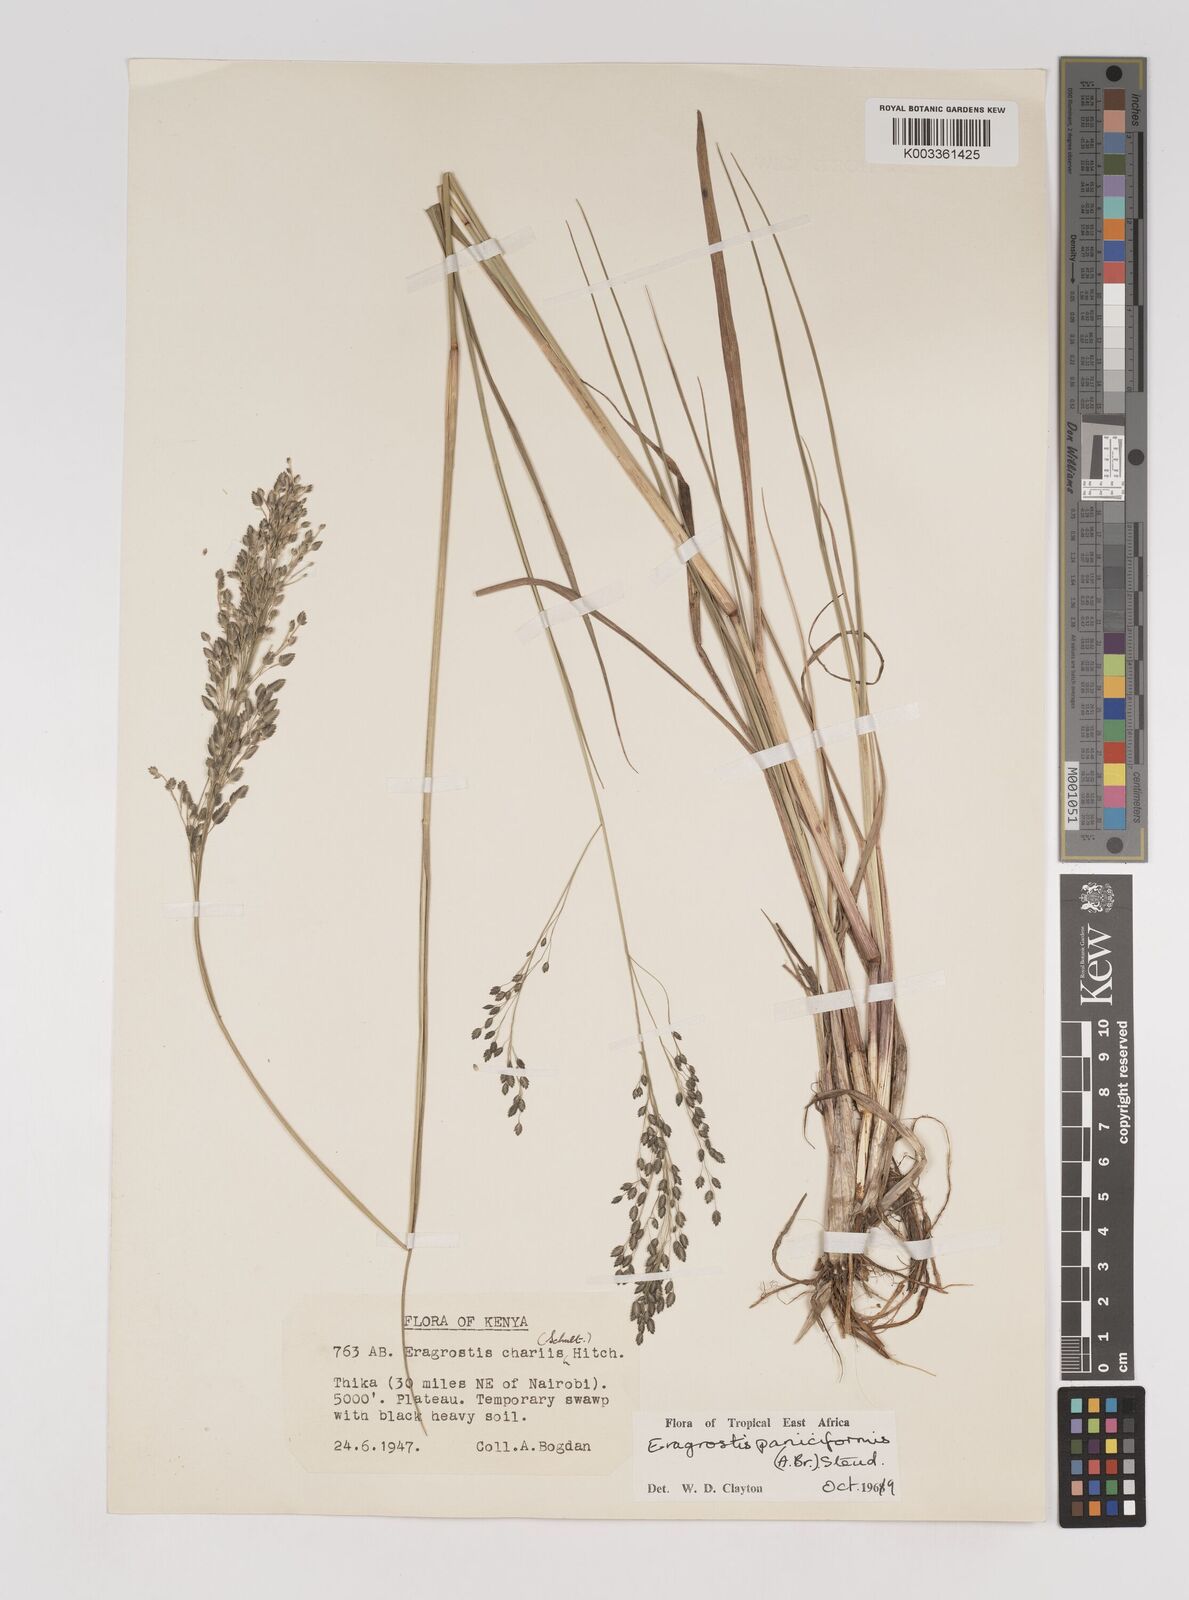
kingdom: Plantae
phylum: Tracheophyta
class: Liliopsida
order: Poales
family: Poaceae
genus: Eragrostis
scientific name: Eragrostis paniciformis
